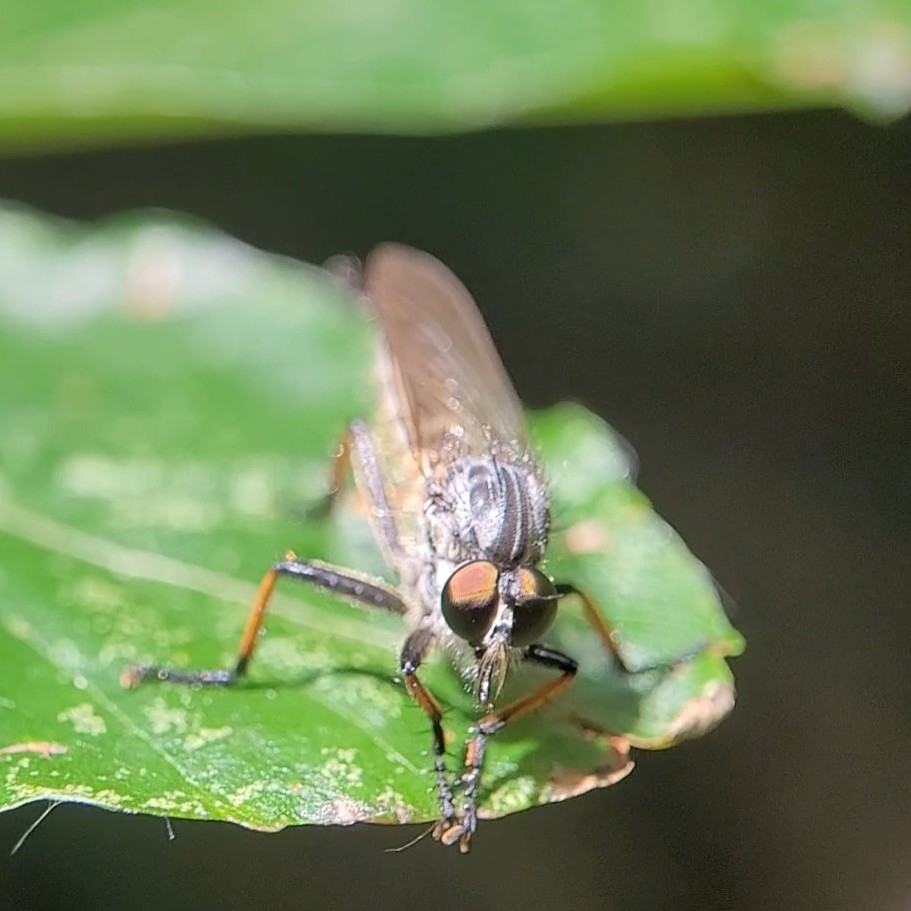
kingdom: Animalia
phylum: Arthropoda
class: Insecta
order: Diptera
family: Asilidae
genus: Neoitamus
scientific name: Neoitamus cyanurus
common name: Sortfodet skovrovflue
